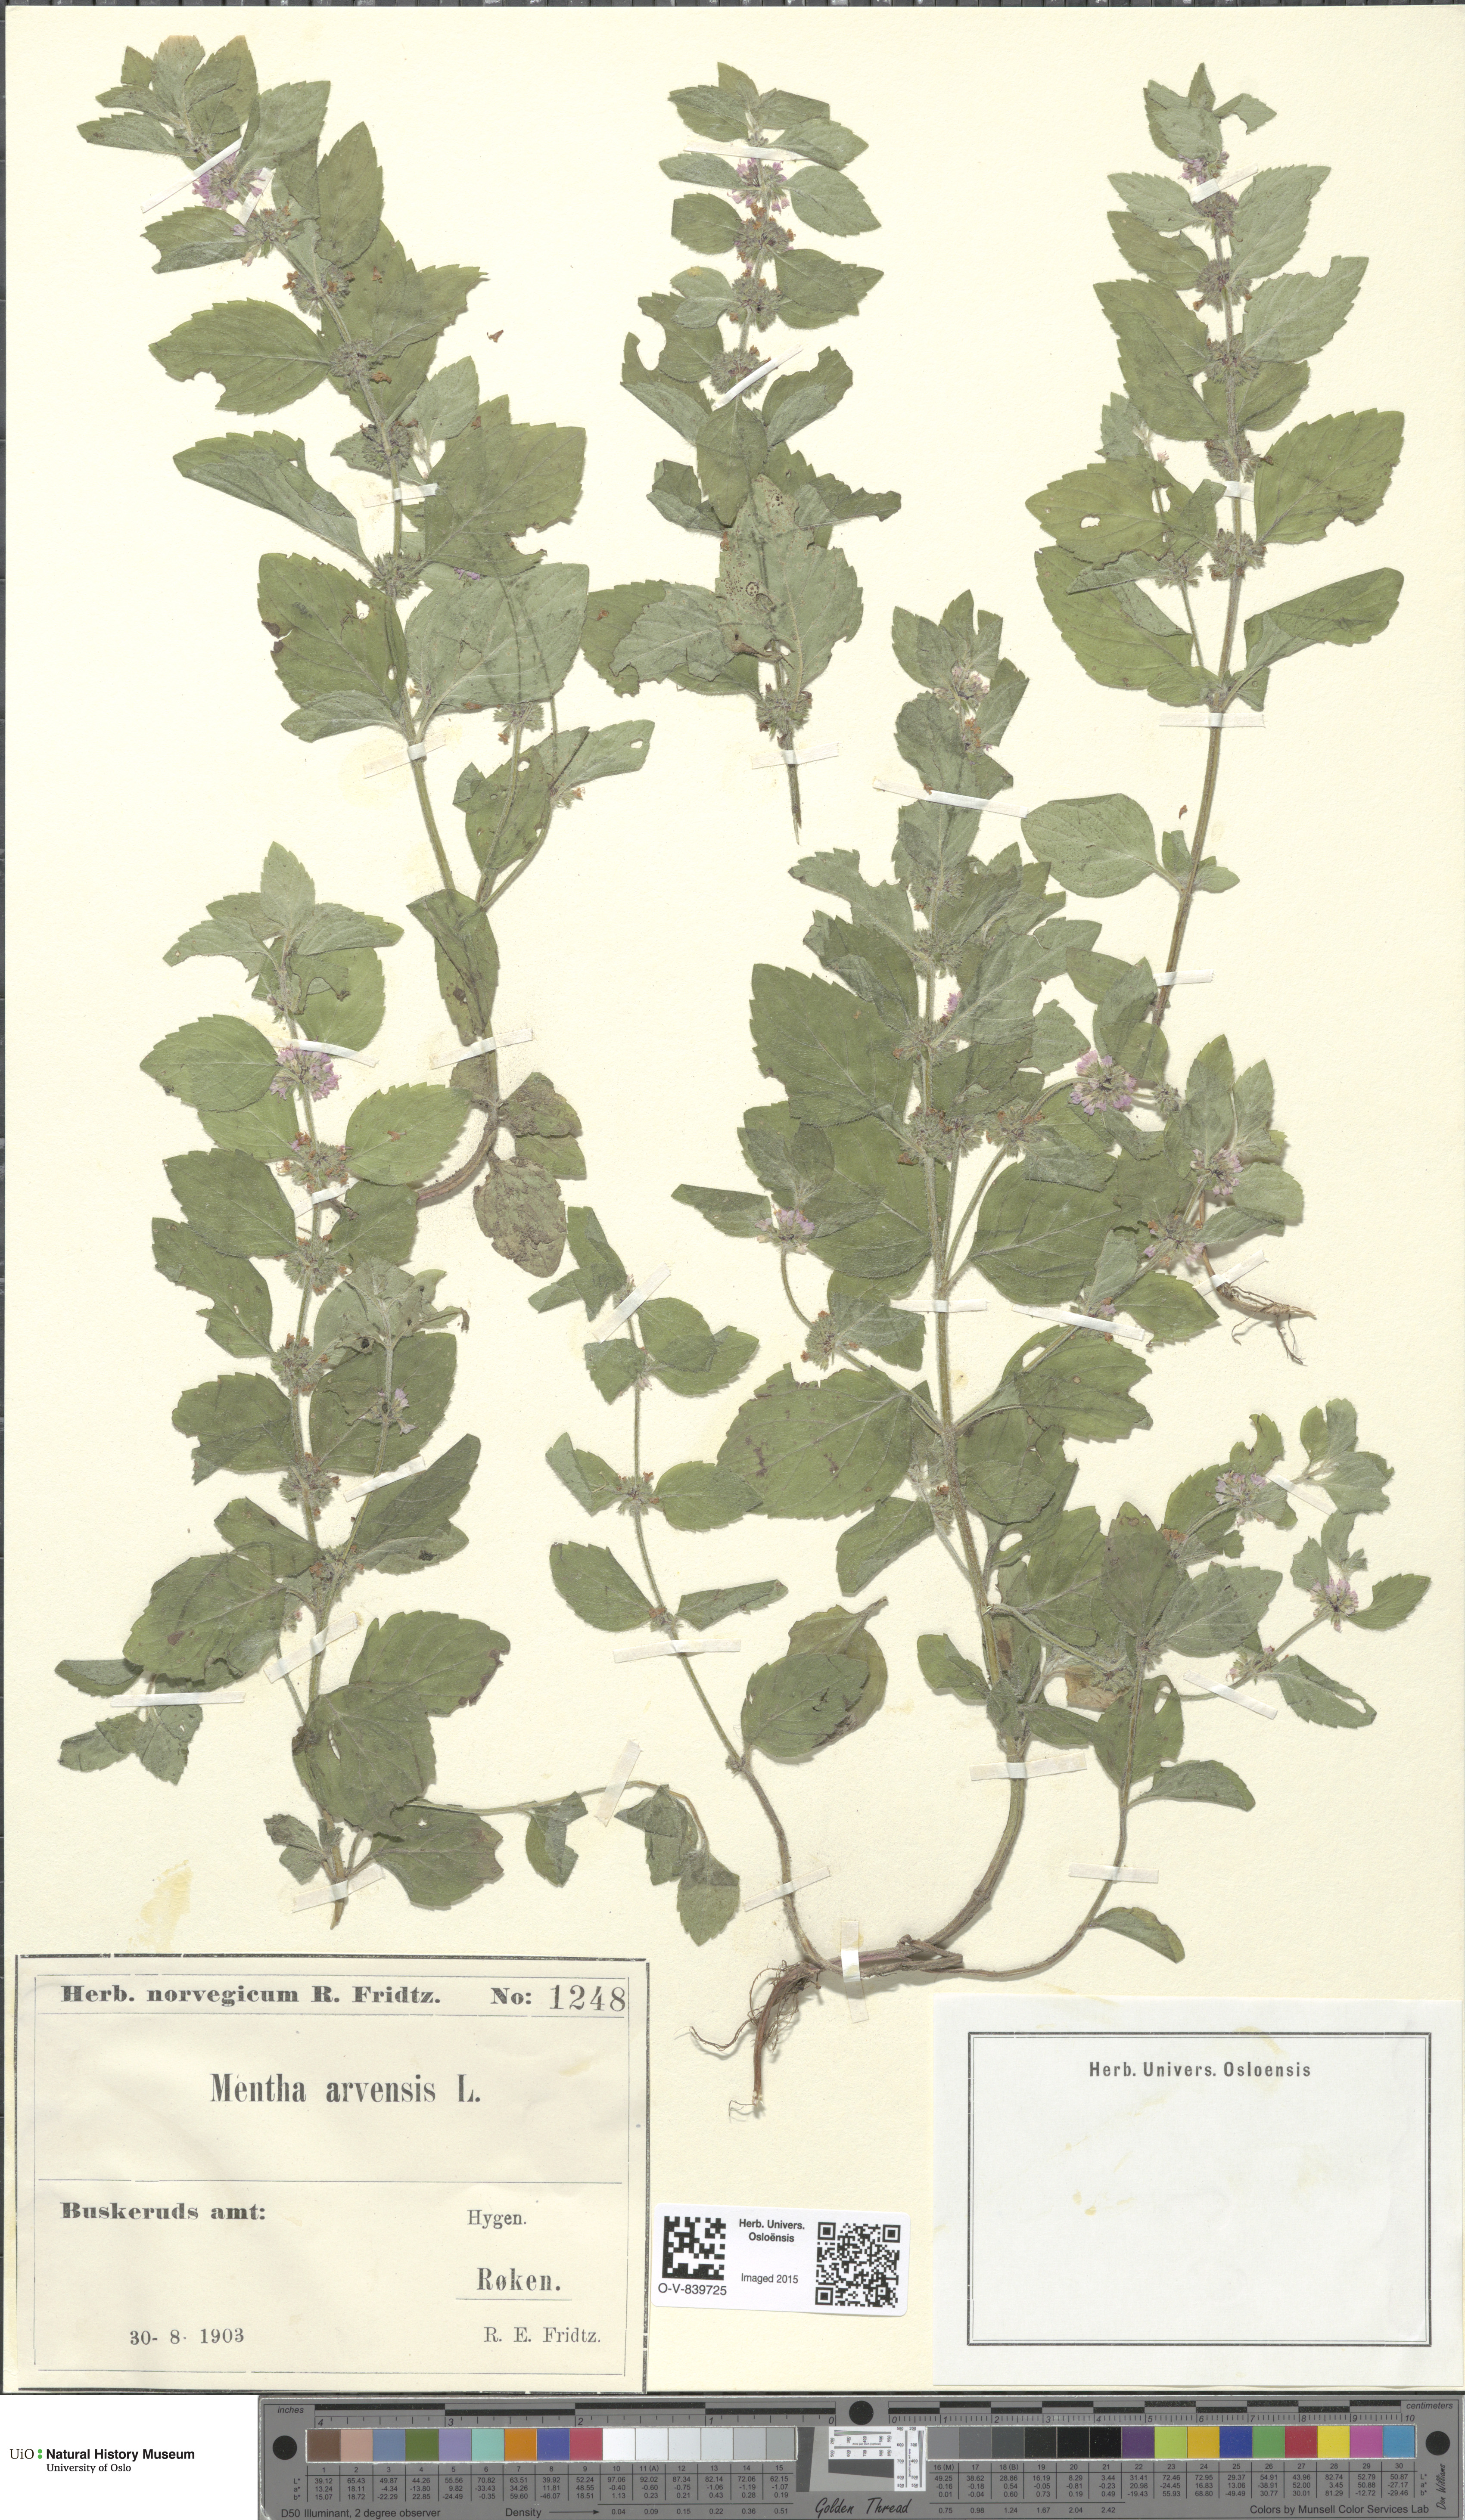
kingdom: Plantae
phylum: Tracheophyta
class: Magnoliopsida
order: Lamiales
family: Lamiaceae
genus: Mentha
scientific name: Mentha arvensis
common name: Corn mint
